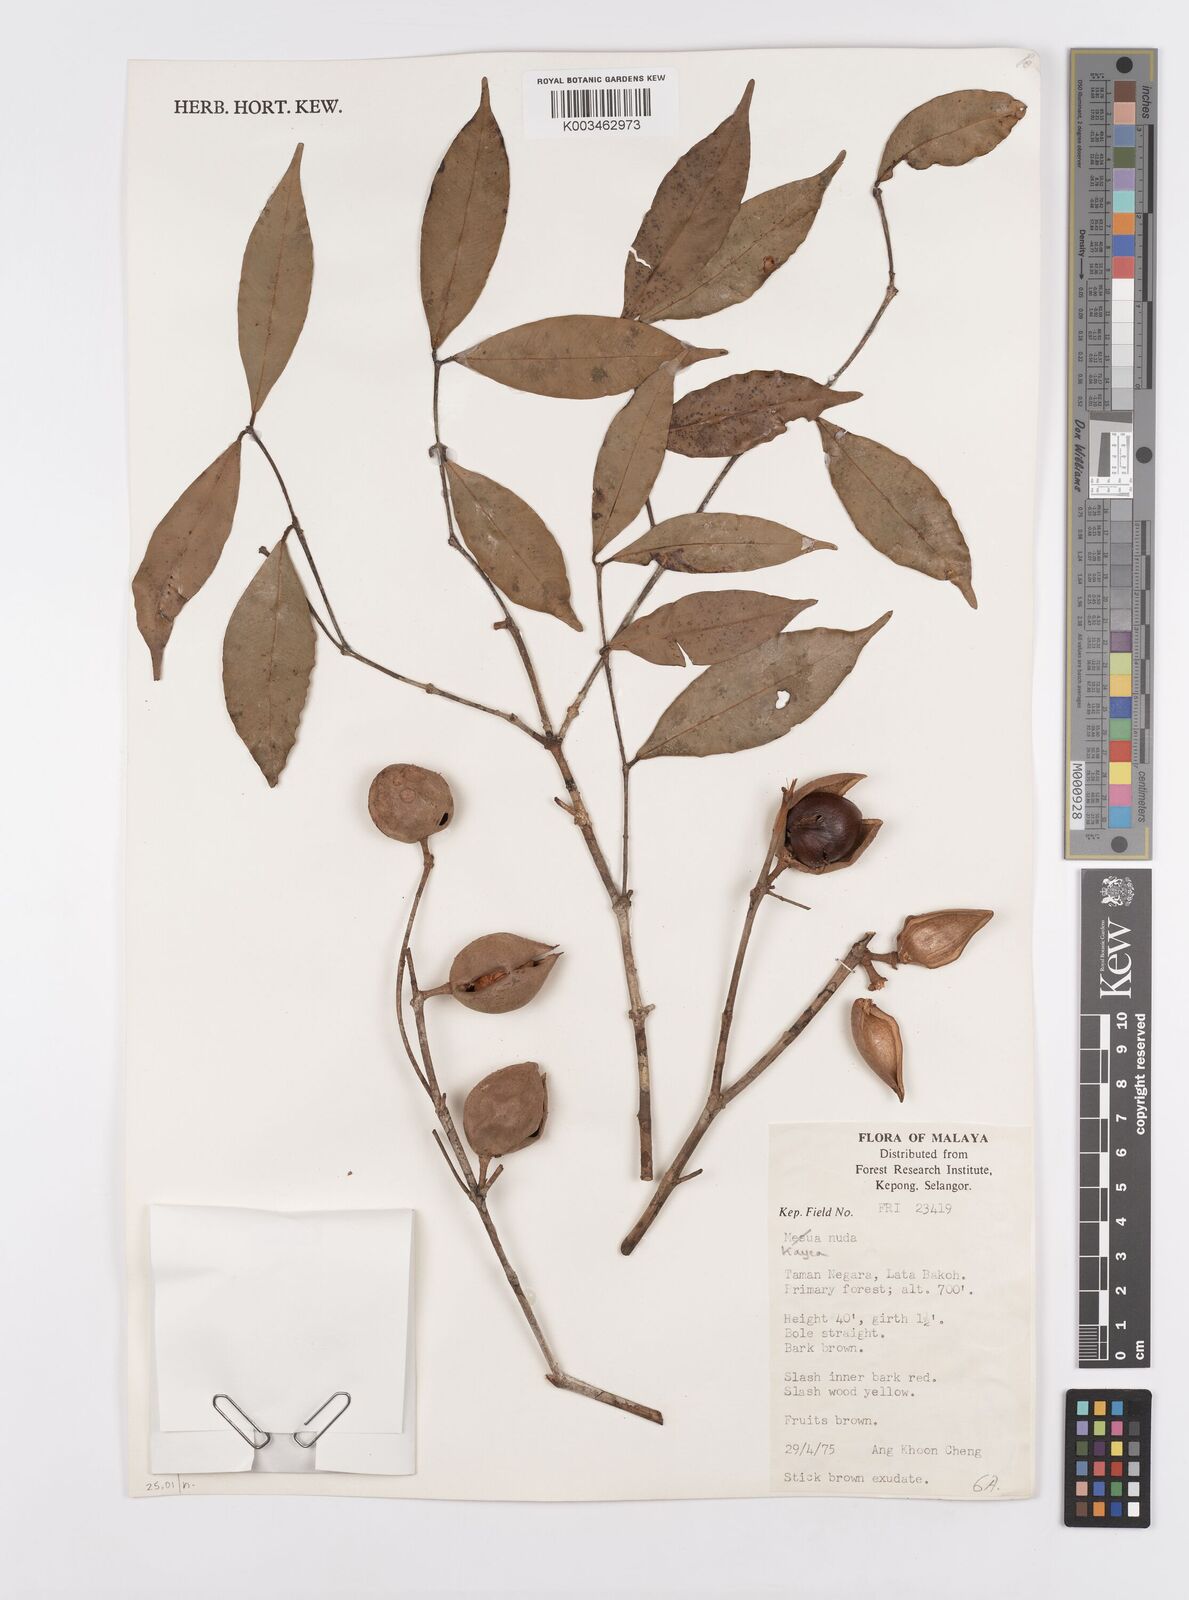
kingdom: Plantae
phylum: Tracheophyta
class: Magnoliopsida
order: Malpighiales
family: Calophyllaceae
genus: Kayea
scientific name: Kayea
